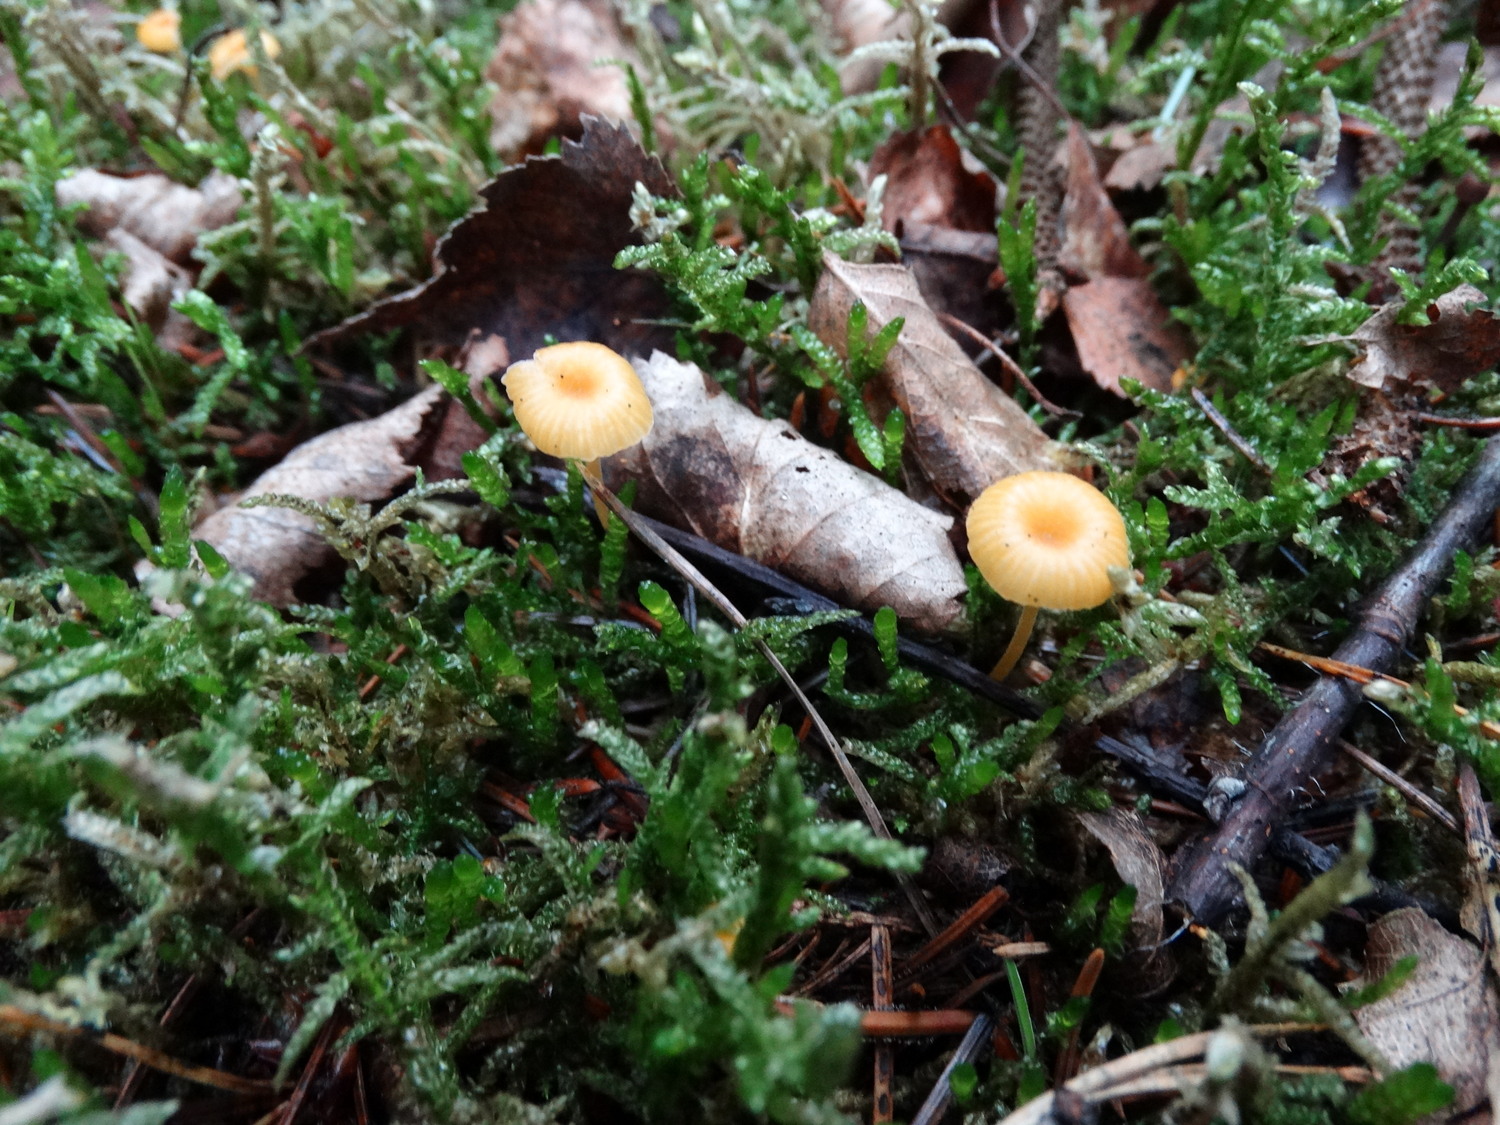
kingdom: Fungi
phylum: Basidiomycota
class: Agaricomycetes
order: Hymenochaetales
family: Rickenellaceae
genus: Rickenella
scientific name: Rickenella fibula
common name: orange mosnavlehat
